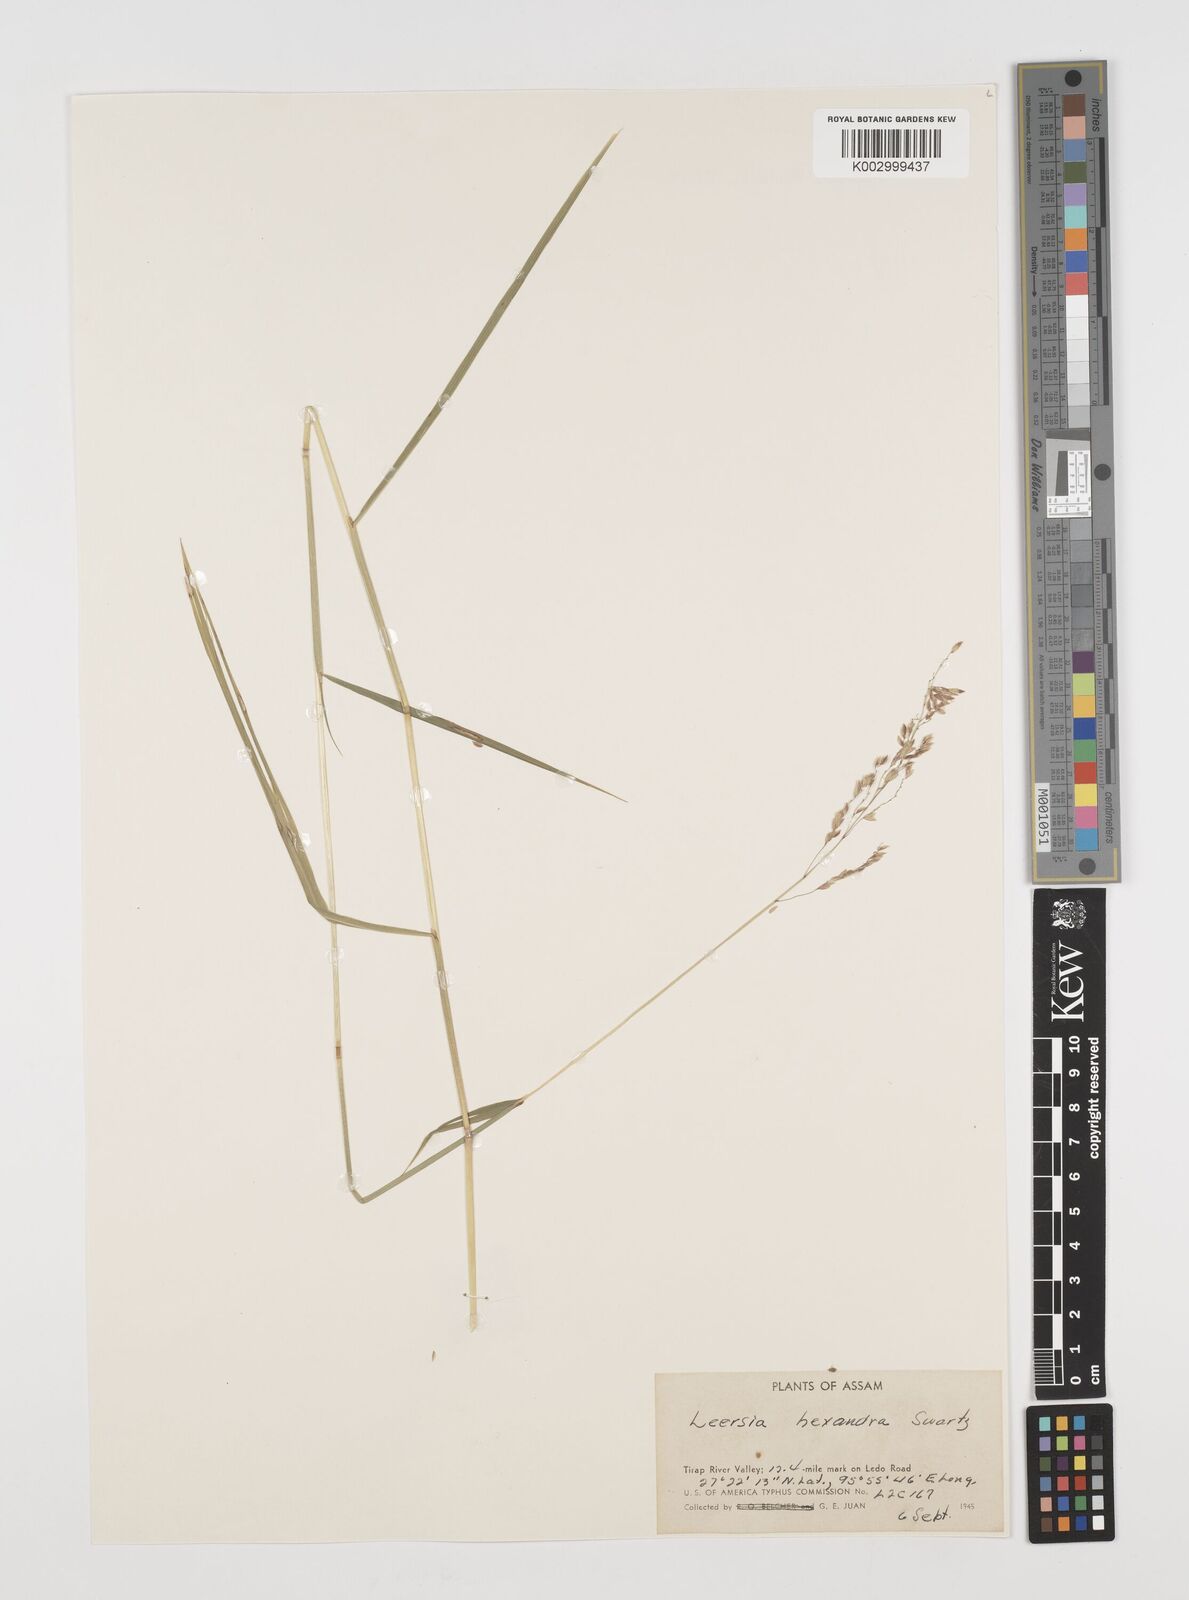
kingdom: Plantae
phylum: Tracheophyta
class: Liliopsida
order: Poales
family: Poaceae
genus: Leersia
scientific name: Leersia hexandra
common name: Southern cut grass
